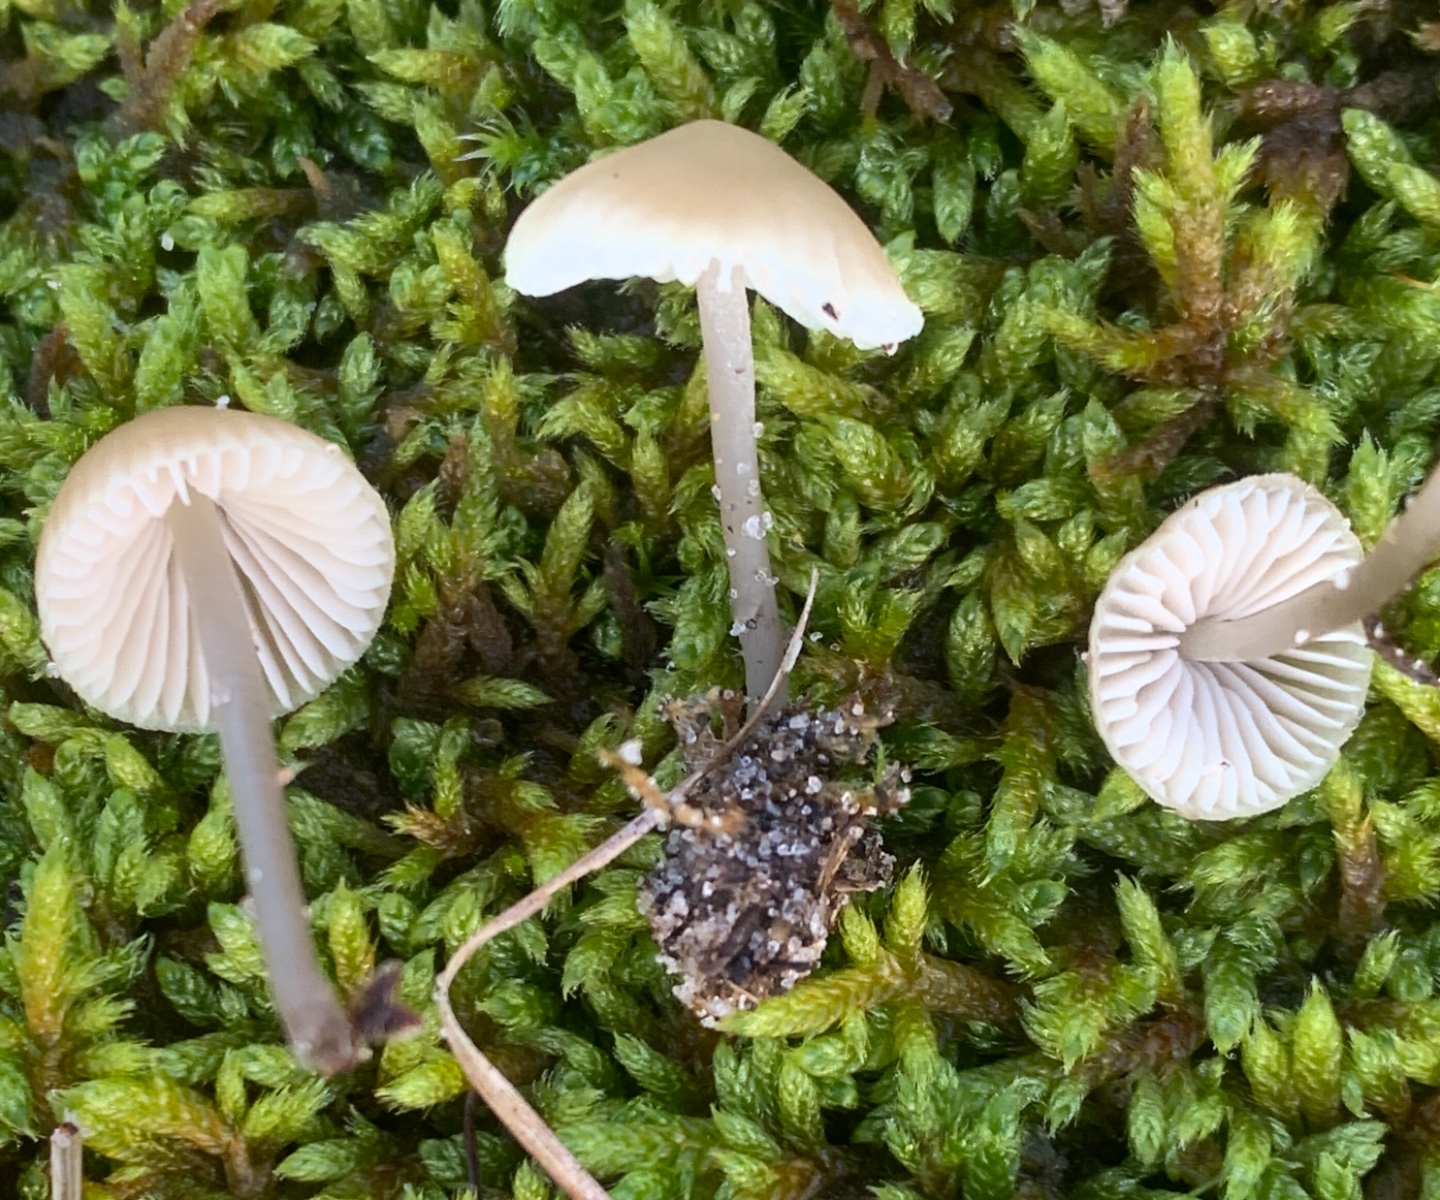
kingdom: Fungi
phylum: Basidiomycota
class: Agaricomycetes
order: Agaricales
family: Mycenaceae
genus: Mycena
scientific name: Mycena chlorantha
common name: klit-huesvamp
